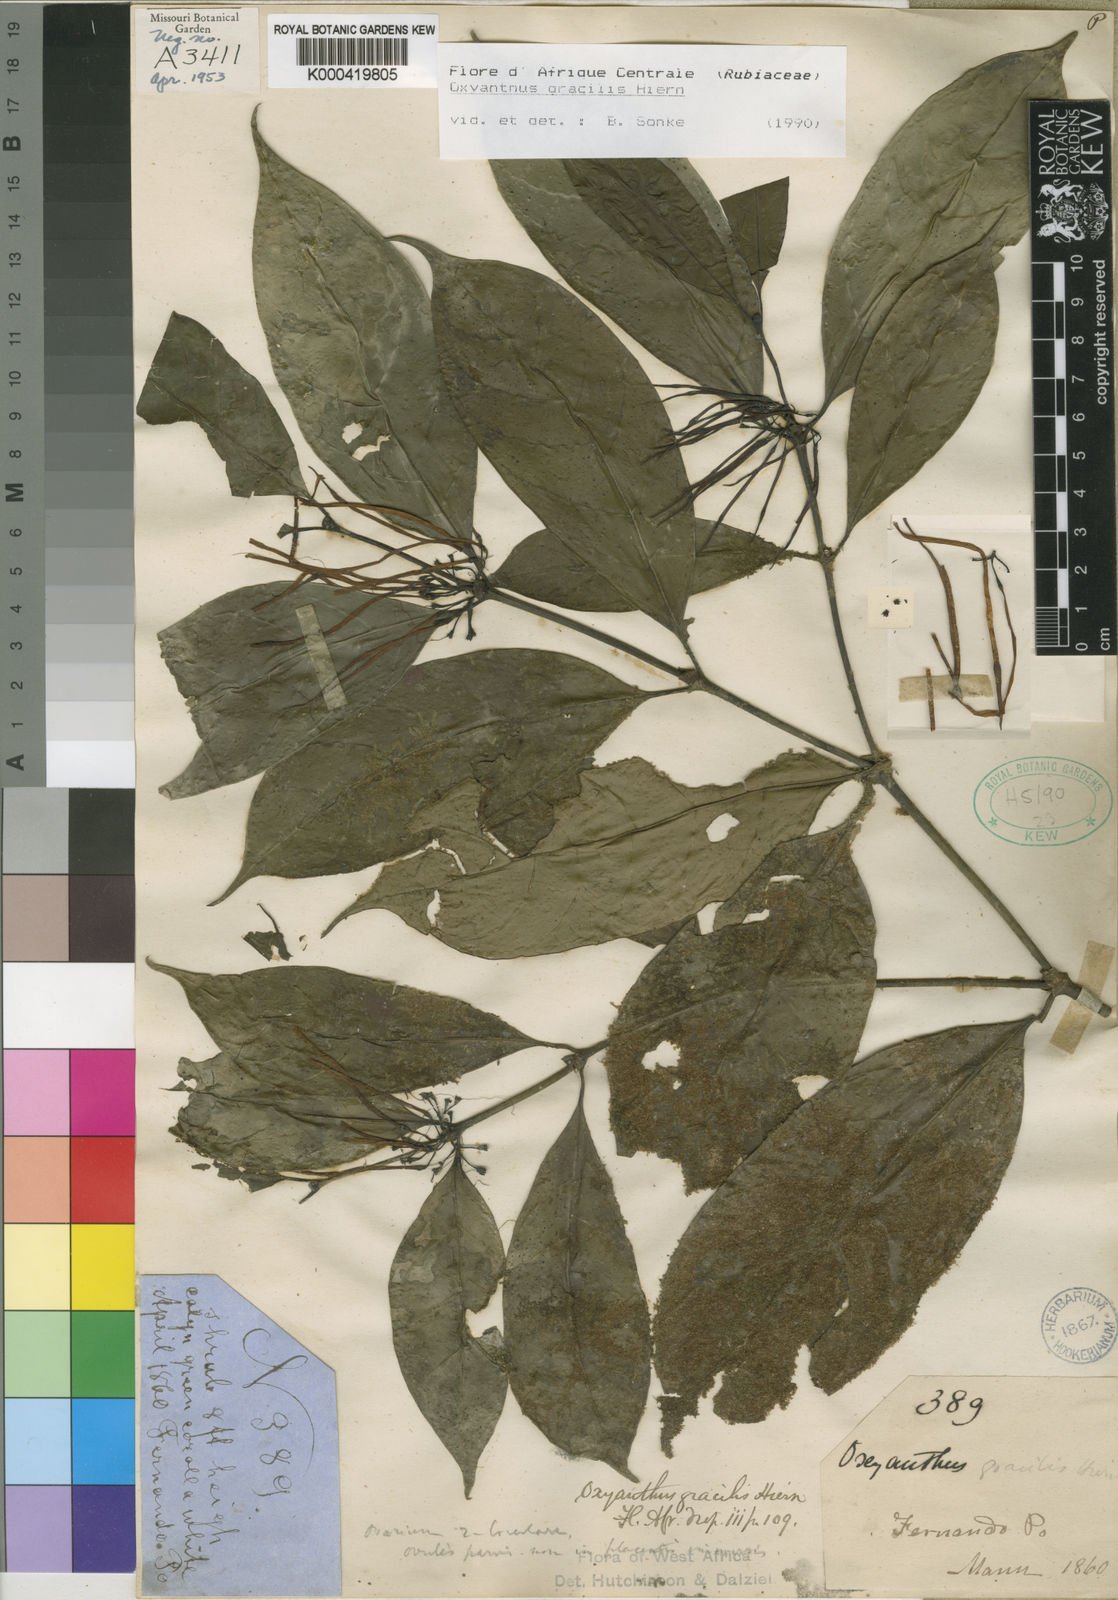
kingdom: Plantae
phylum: Tracheophyta
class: Magnoliopsida
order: Gentianales
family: Rubiaceae
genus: Oxyanthus
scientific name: Oxyanthus gracilis
